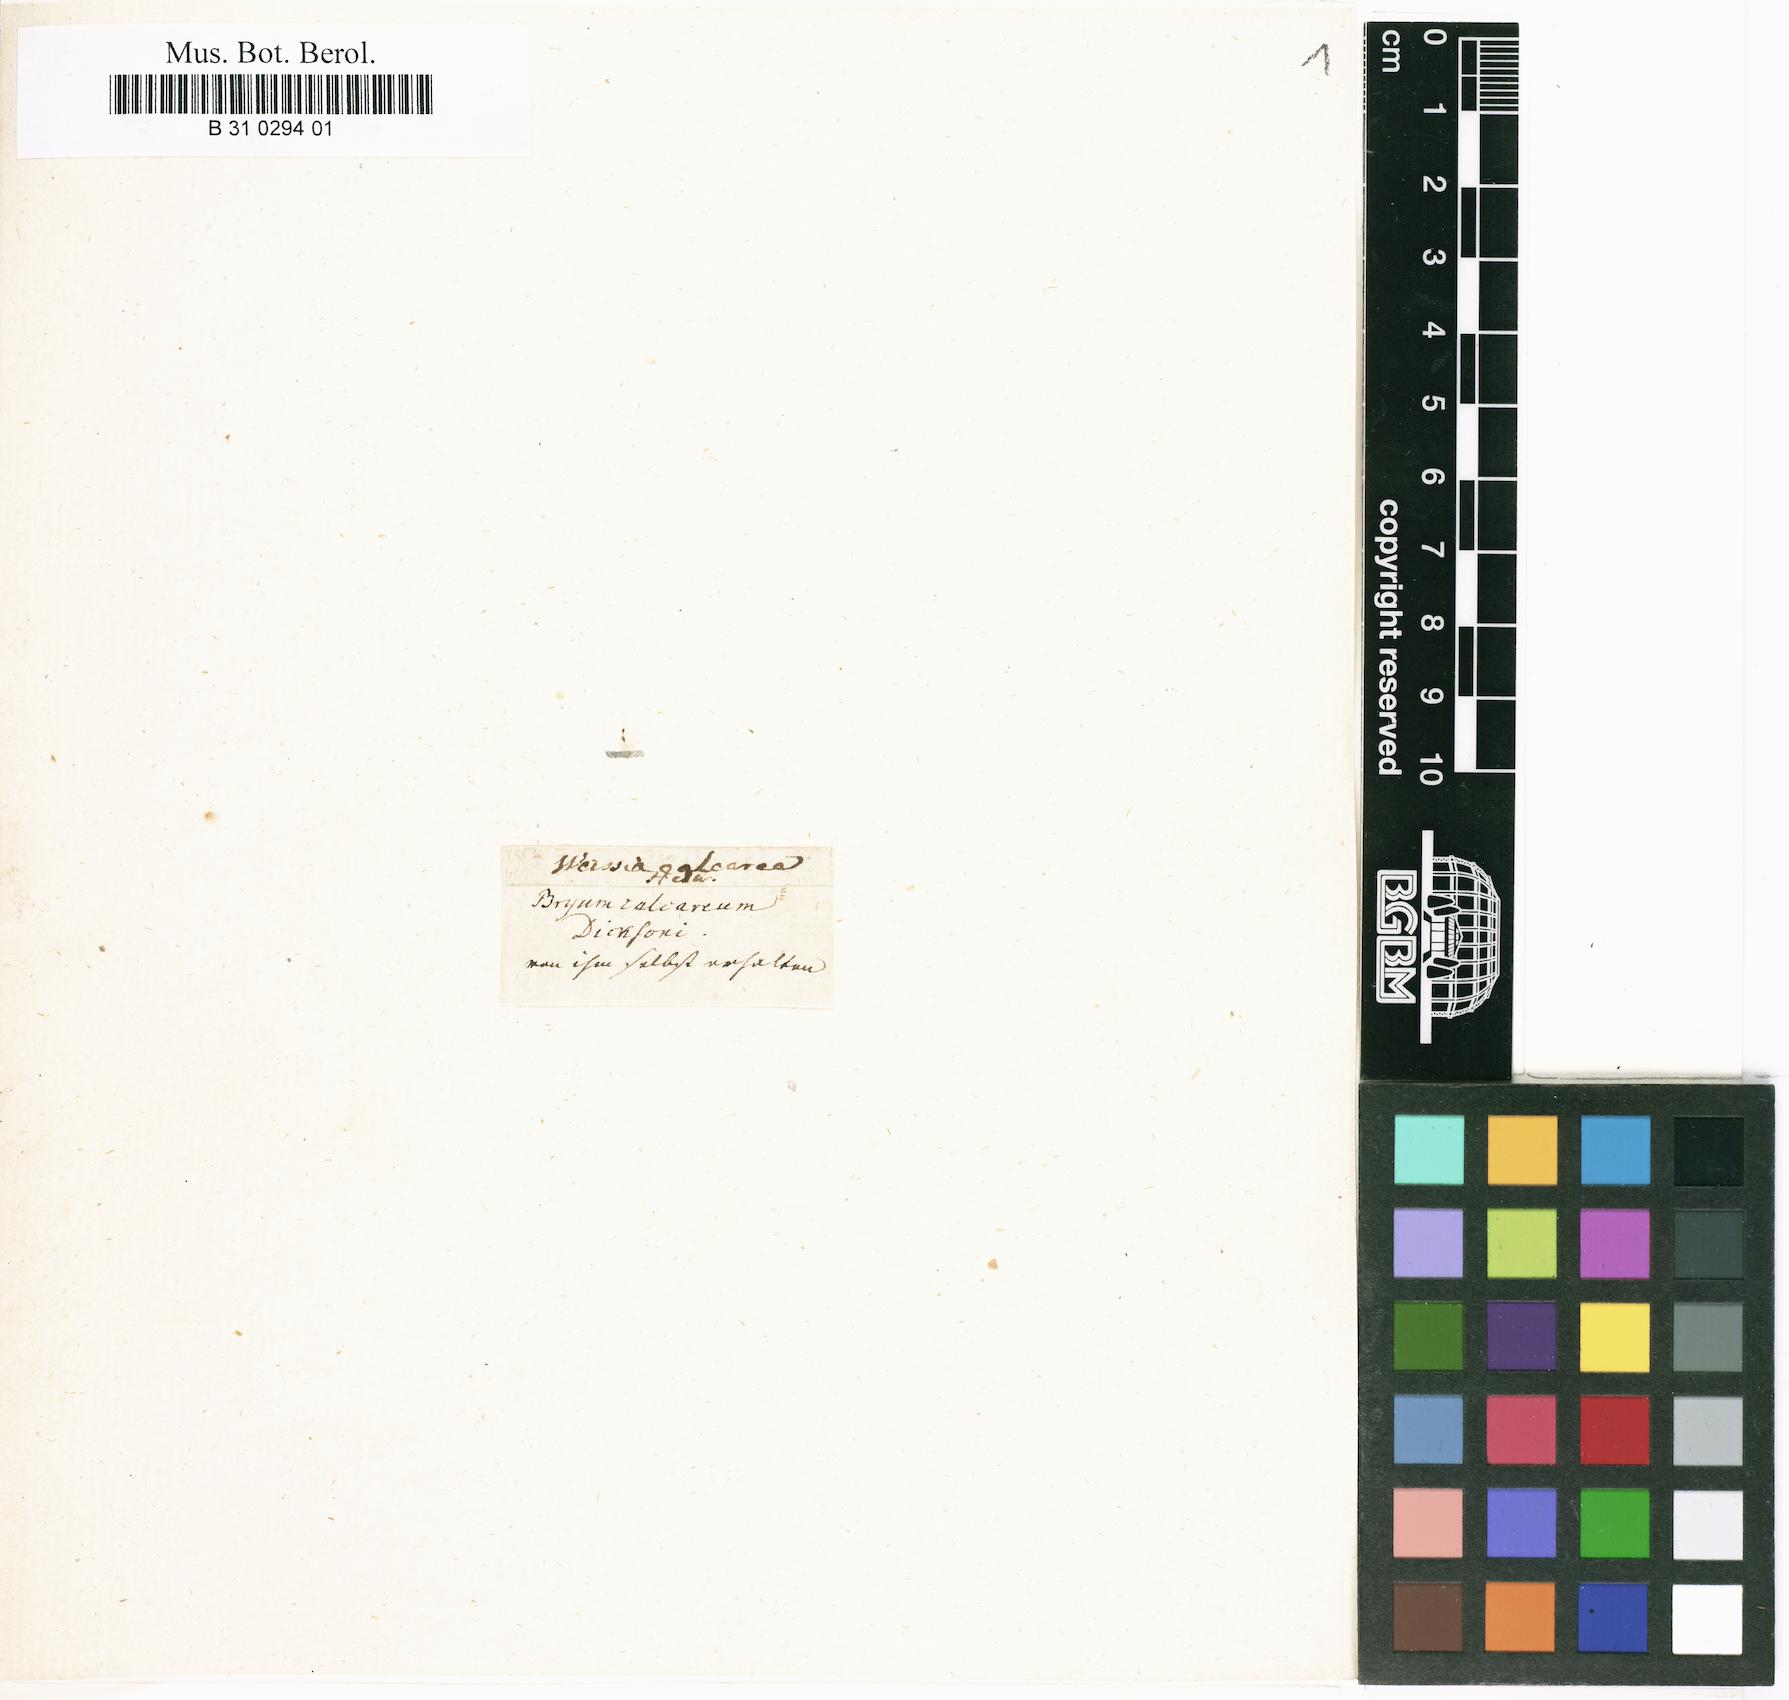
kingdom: Plantae
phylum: Bryophyta
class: Bryopsida
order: Grimmiales
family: Seligeriaceae
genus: Seligeria
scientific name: Seligeria calcarea
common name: Chalk bristle moss
